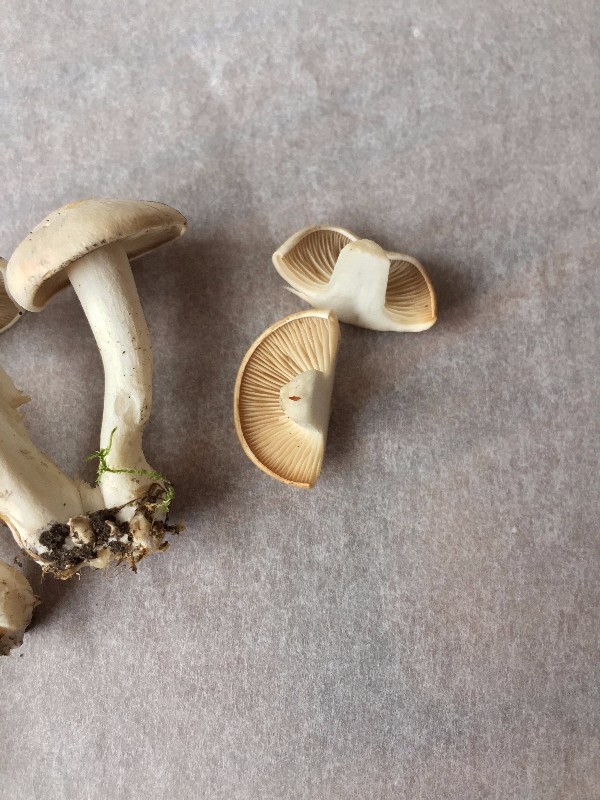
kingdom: Fungi
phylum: Basidiomycota
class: Agaricomycetes
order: Agaricales
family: Tricholomataceae
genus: Leucocybe
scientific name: Leucocybe connata
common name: knippe-tragthat
